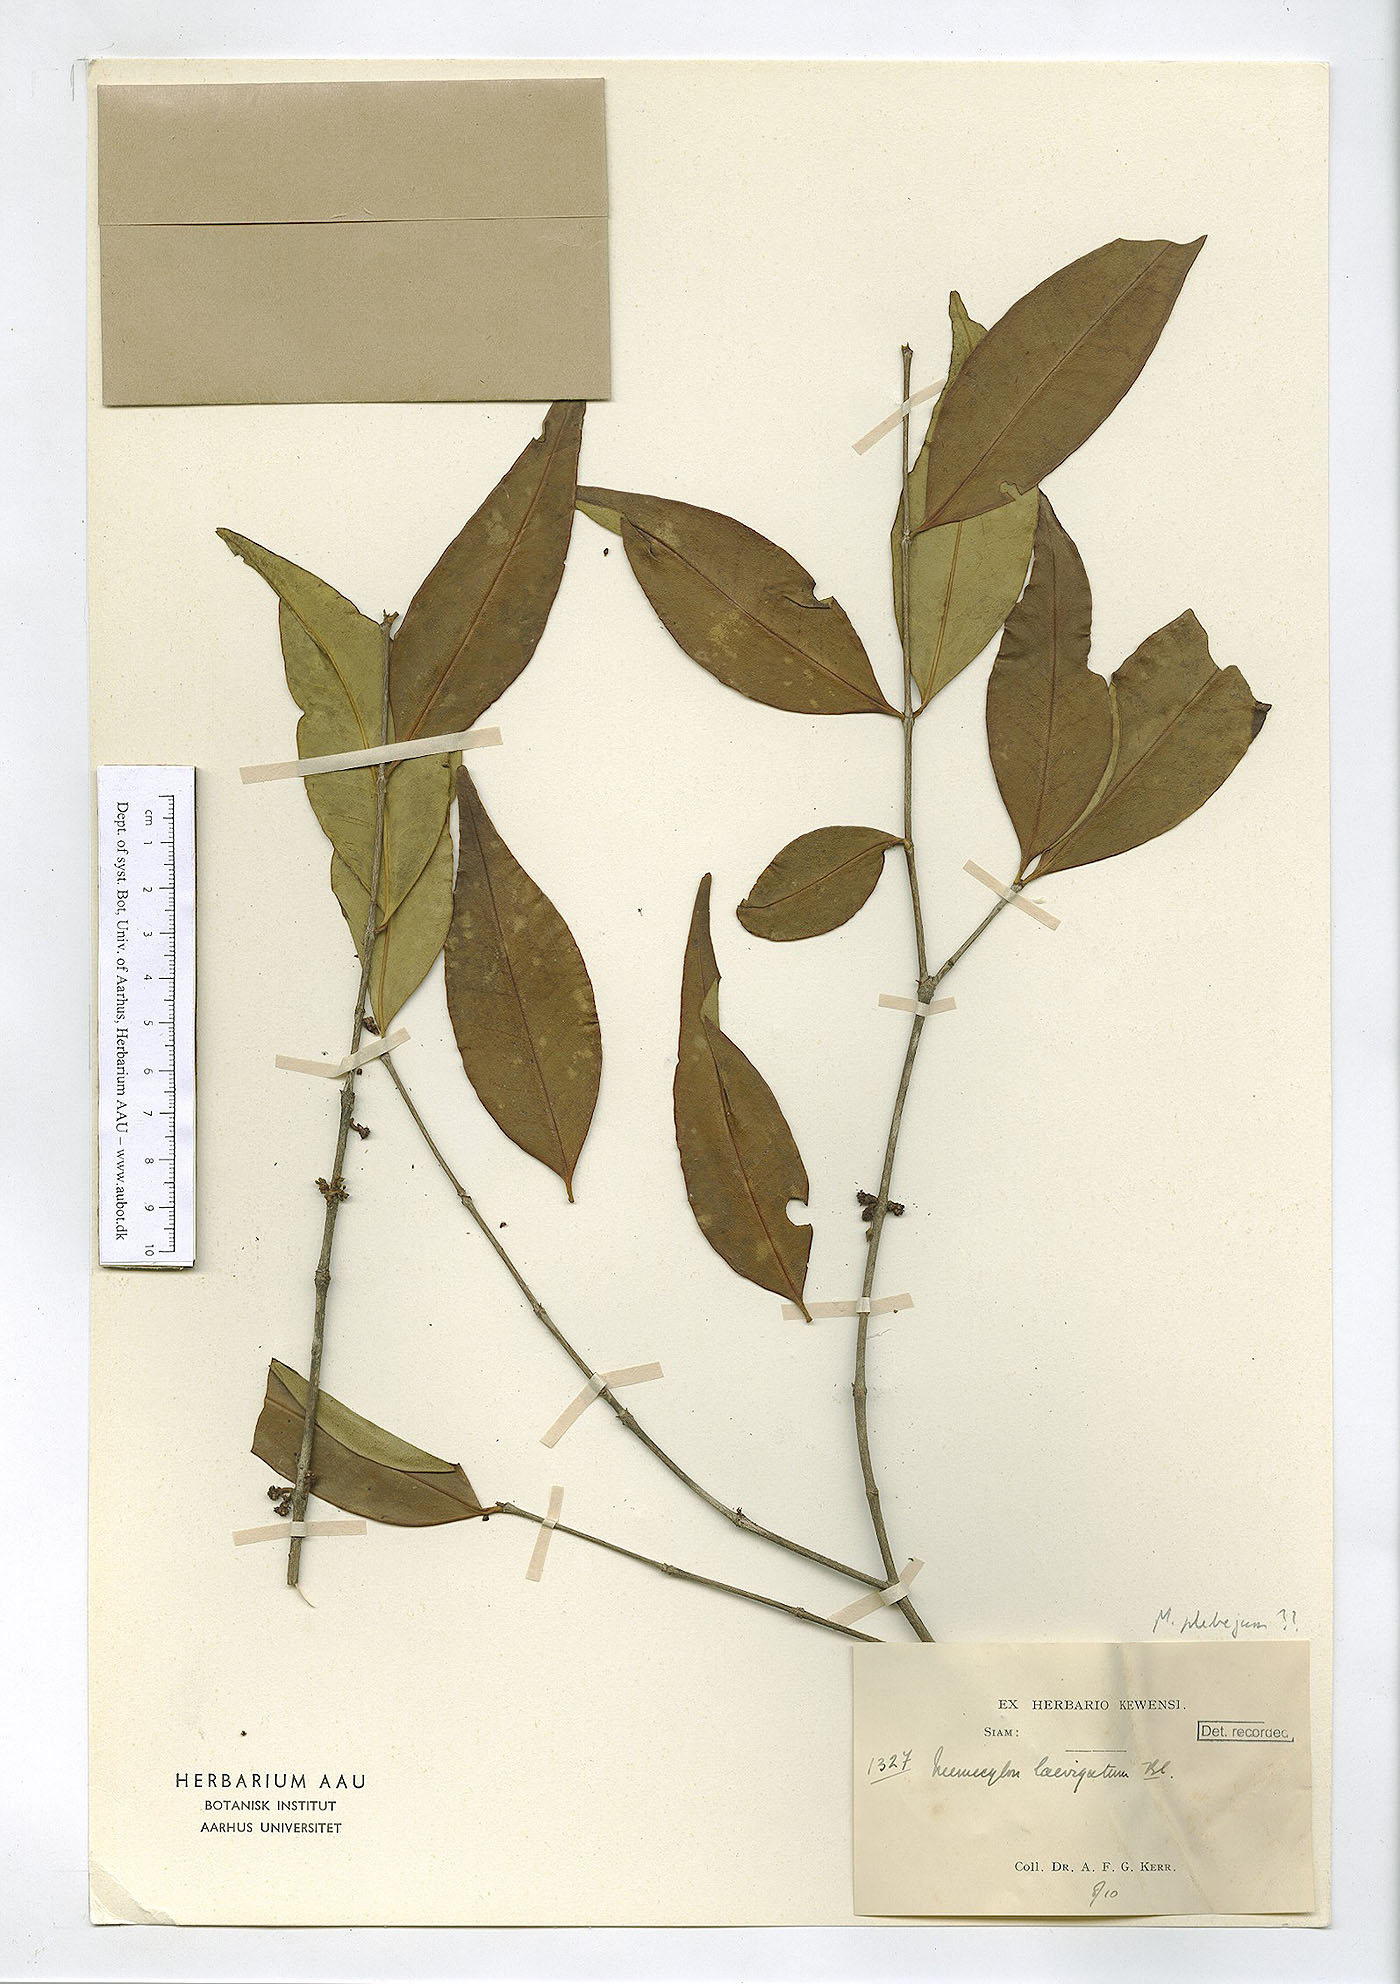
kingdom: Plantae
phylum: Tracheophyta
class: Magnoliopsida
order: Myrtales
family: Melastomataceae
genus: Memecylon
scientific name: Memecylon plebejum
